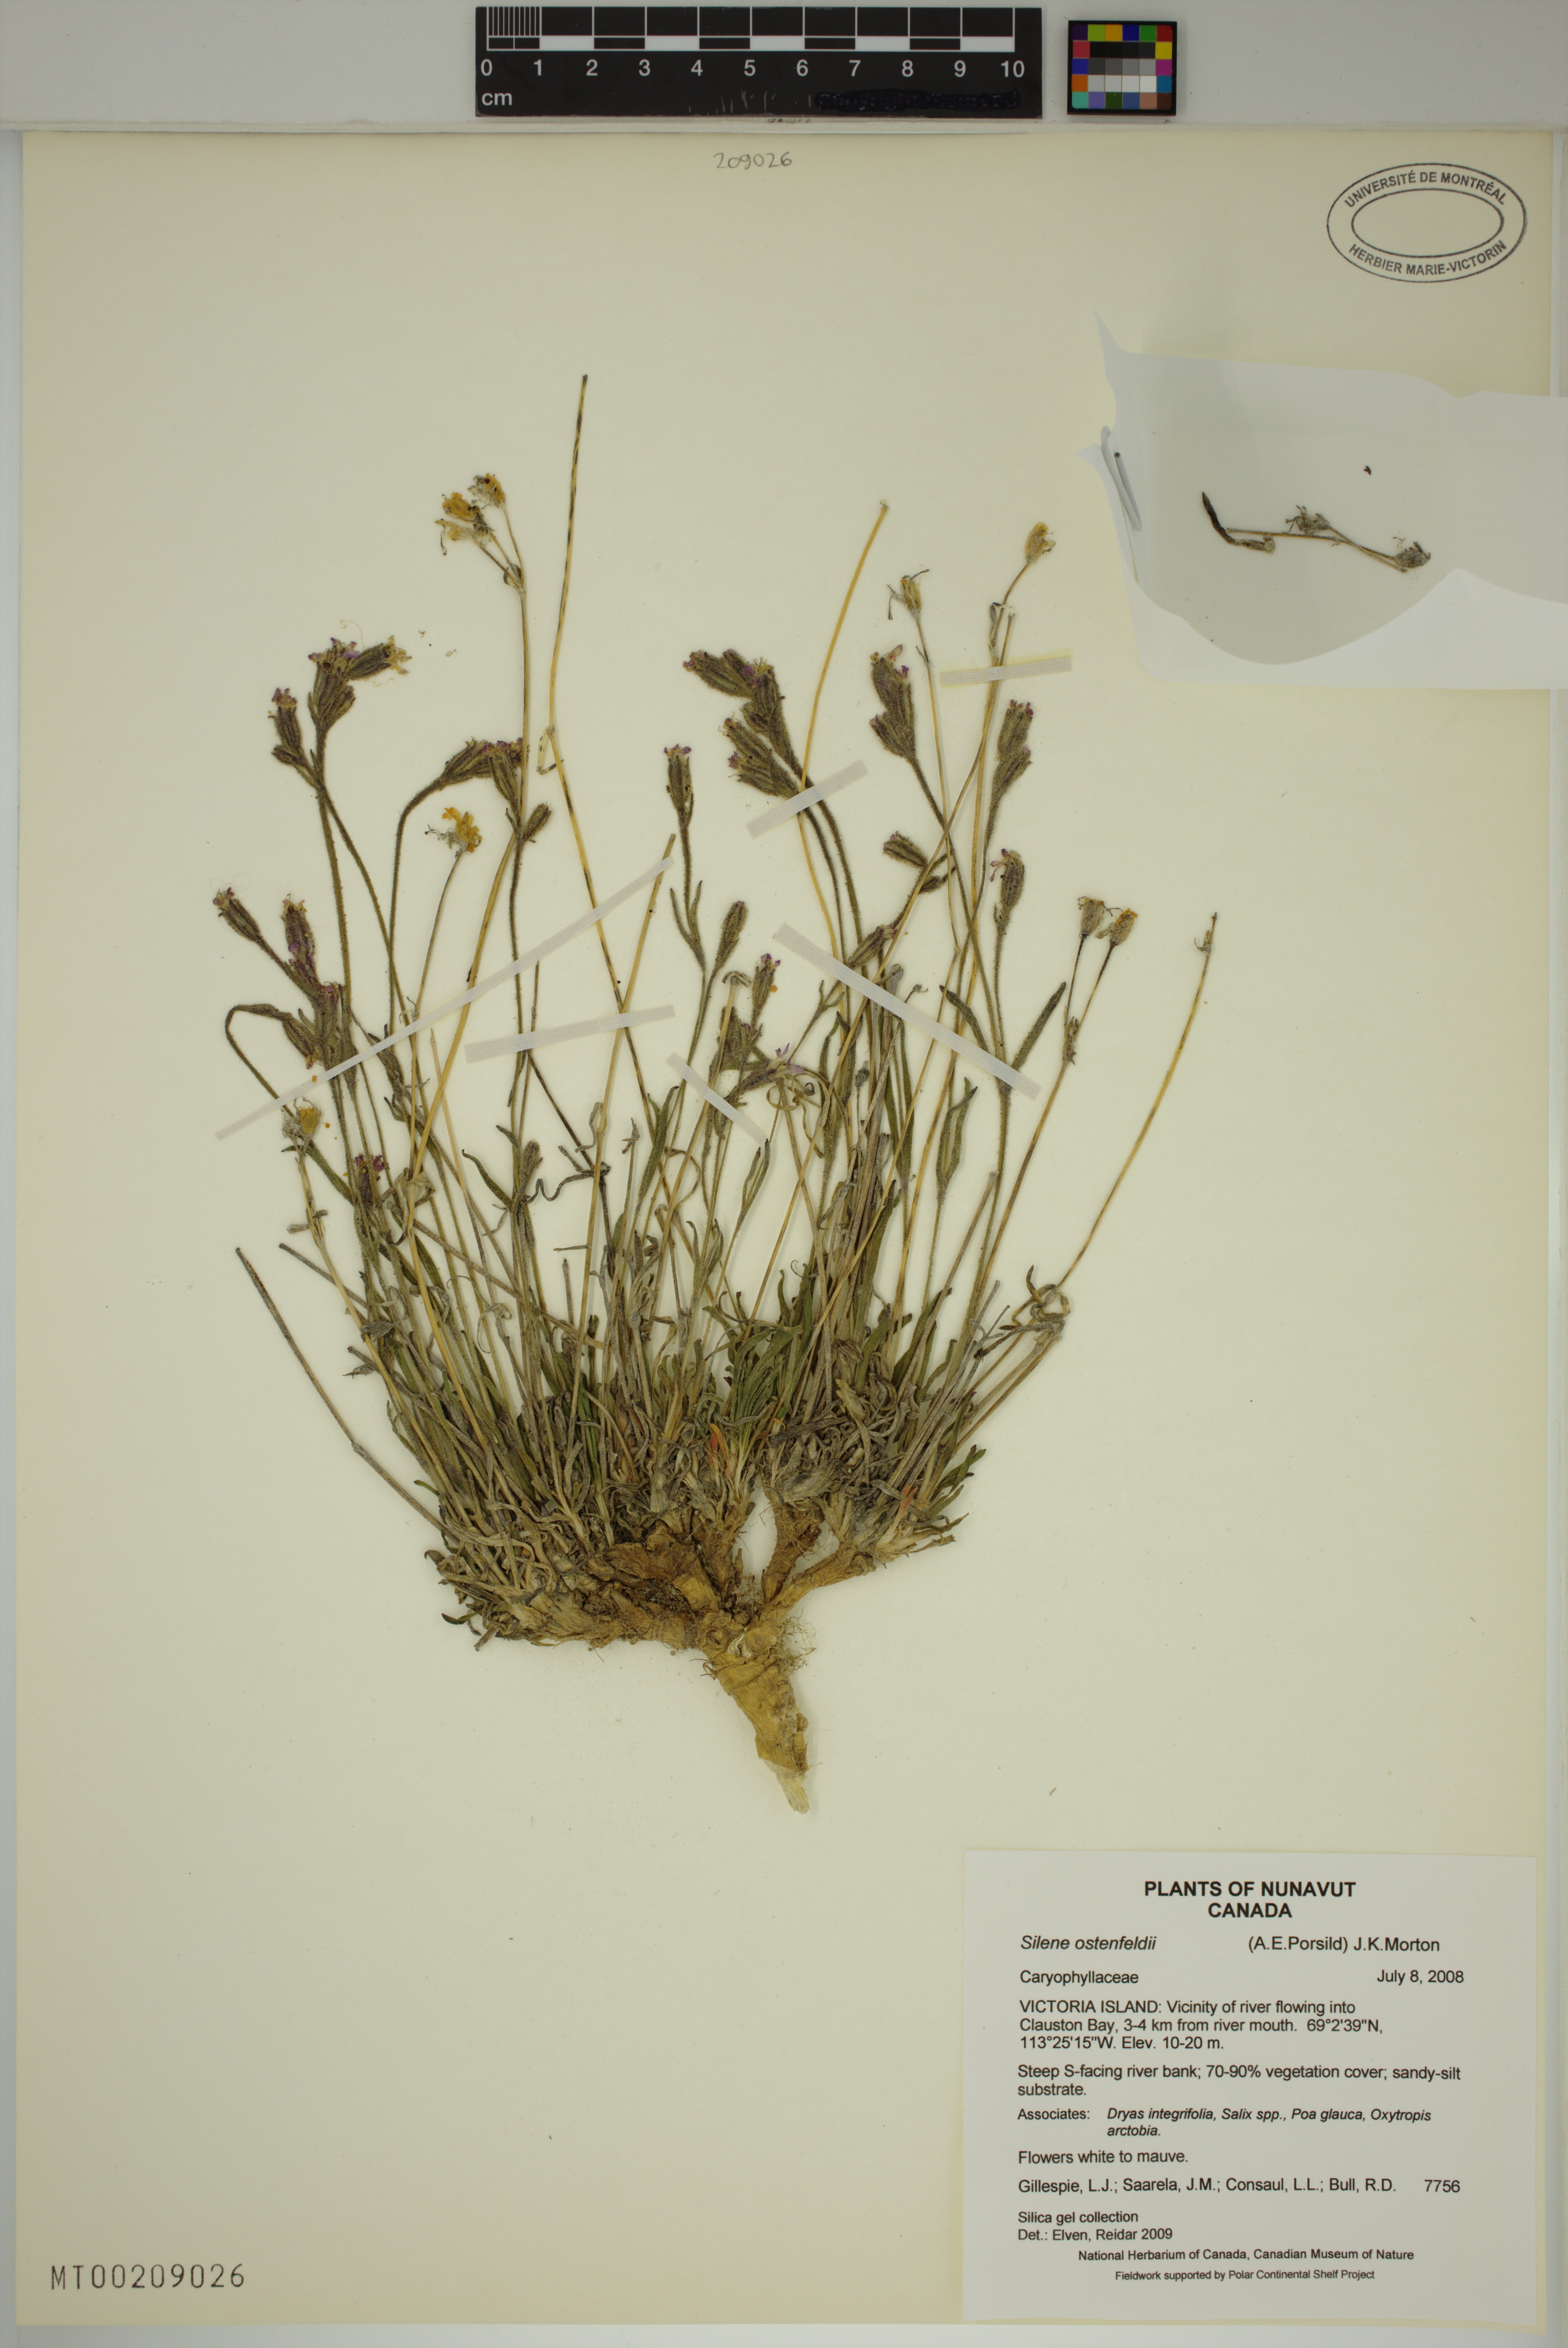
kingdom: Plantae
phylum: Tracheophyta
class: Magnoliopsida
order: Caryophyllales
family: Caryophyllaceae
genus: Silene
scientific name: Silene taimyrensis
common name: Taimyr campion
